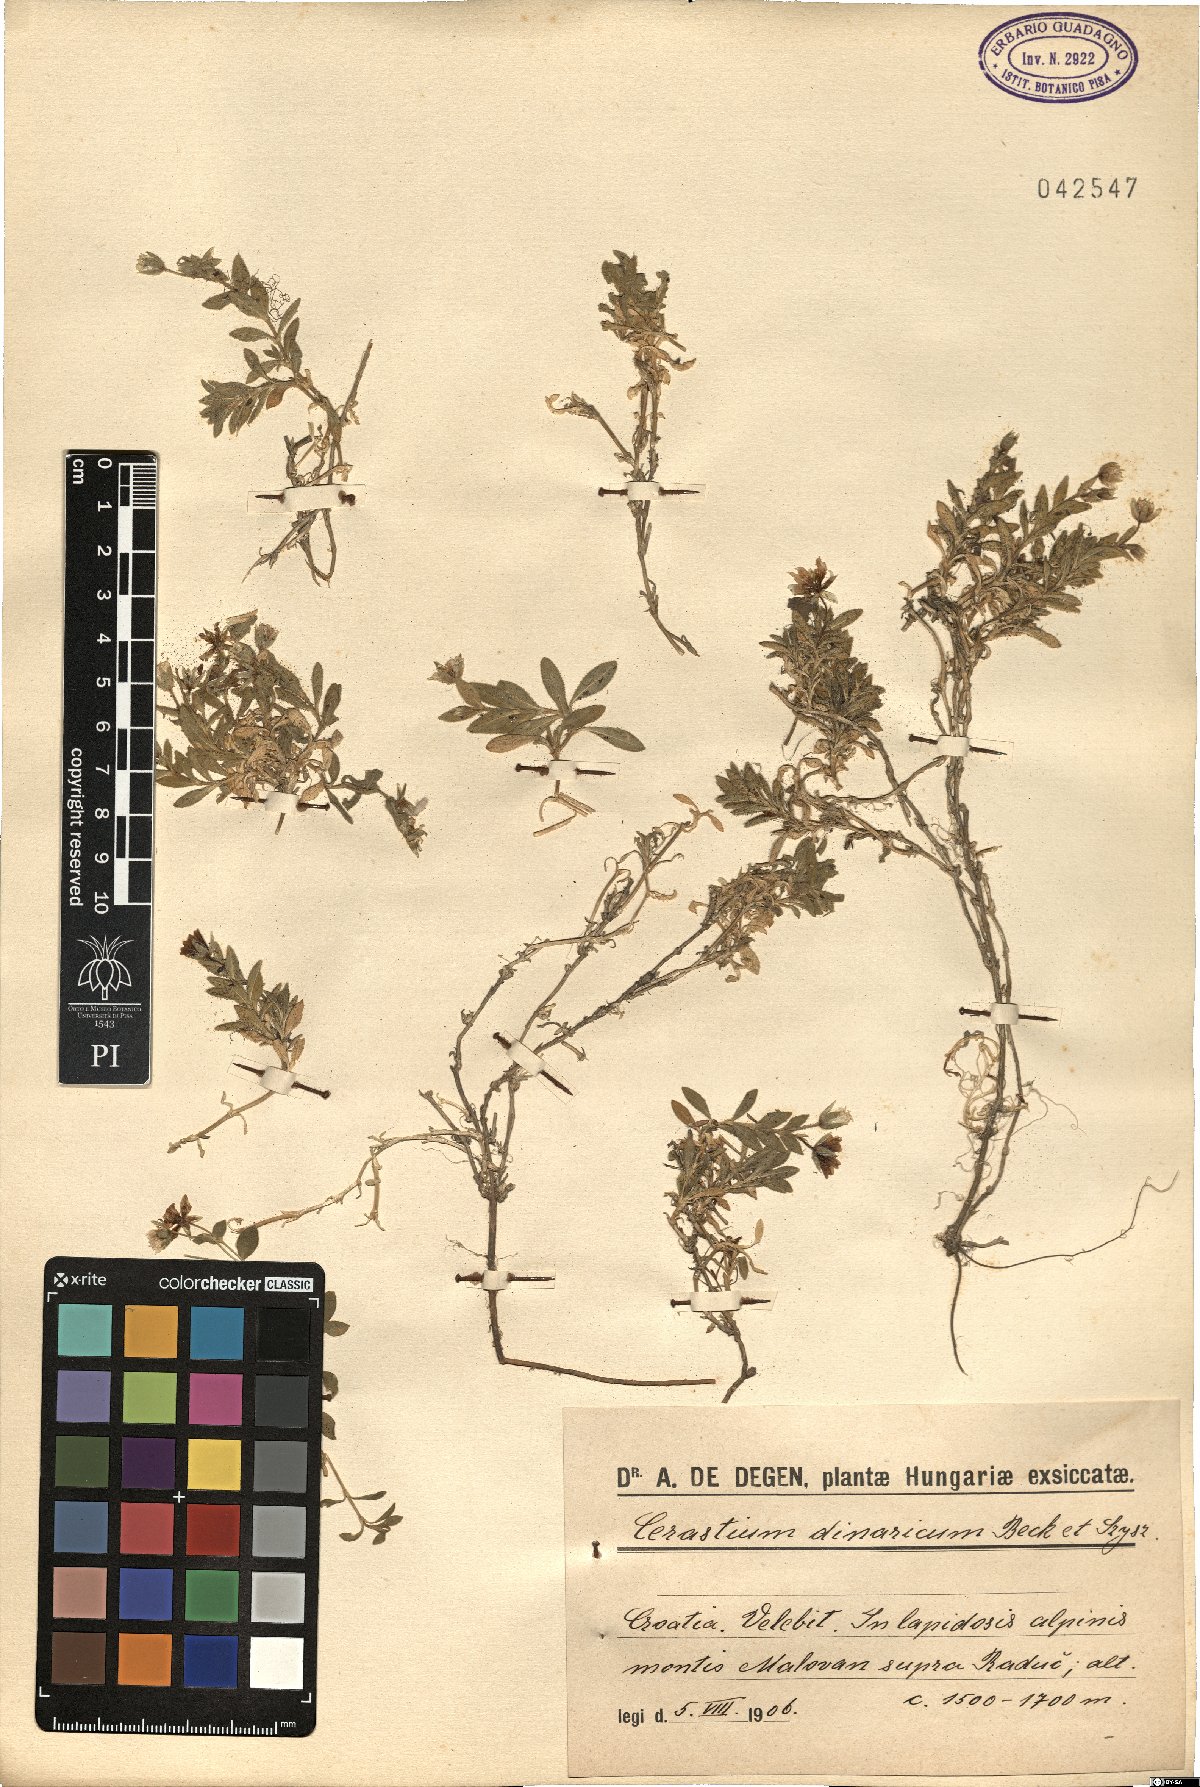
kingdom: Plantae
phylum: Tracheophyta
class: Magnoliopsida
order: Caryophyllales
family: Caryophyllaceae
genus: Cerastium
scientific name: Cerastium dinaricum
